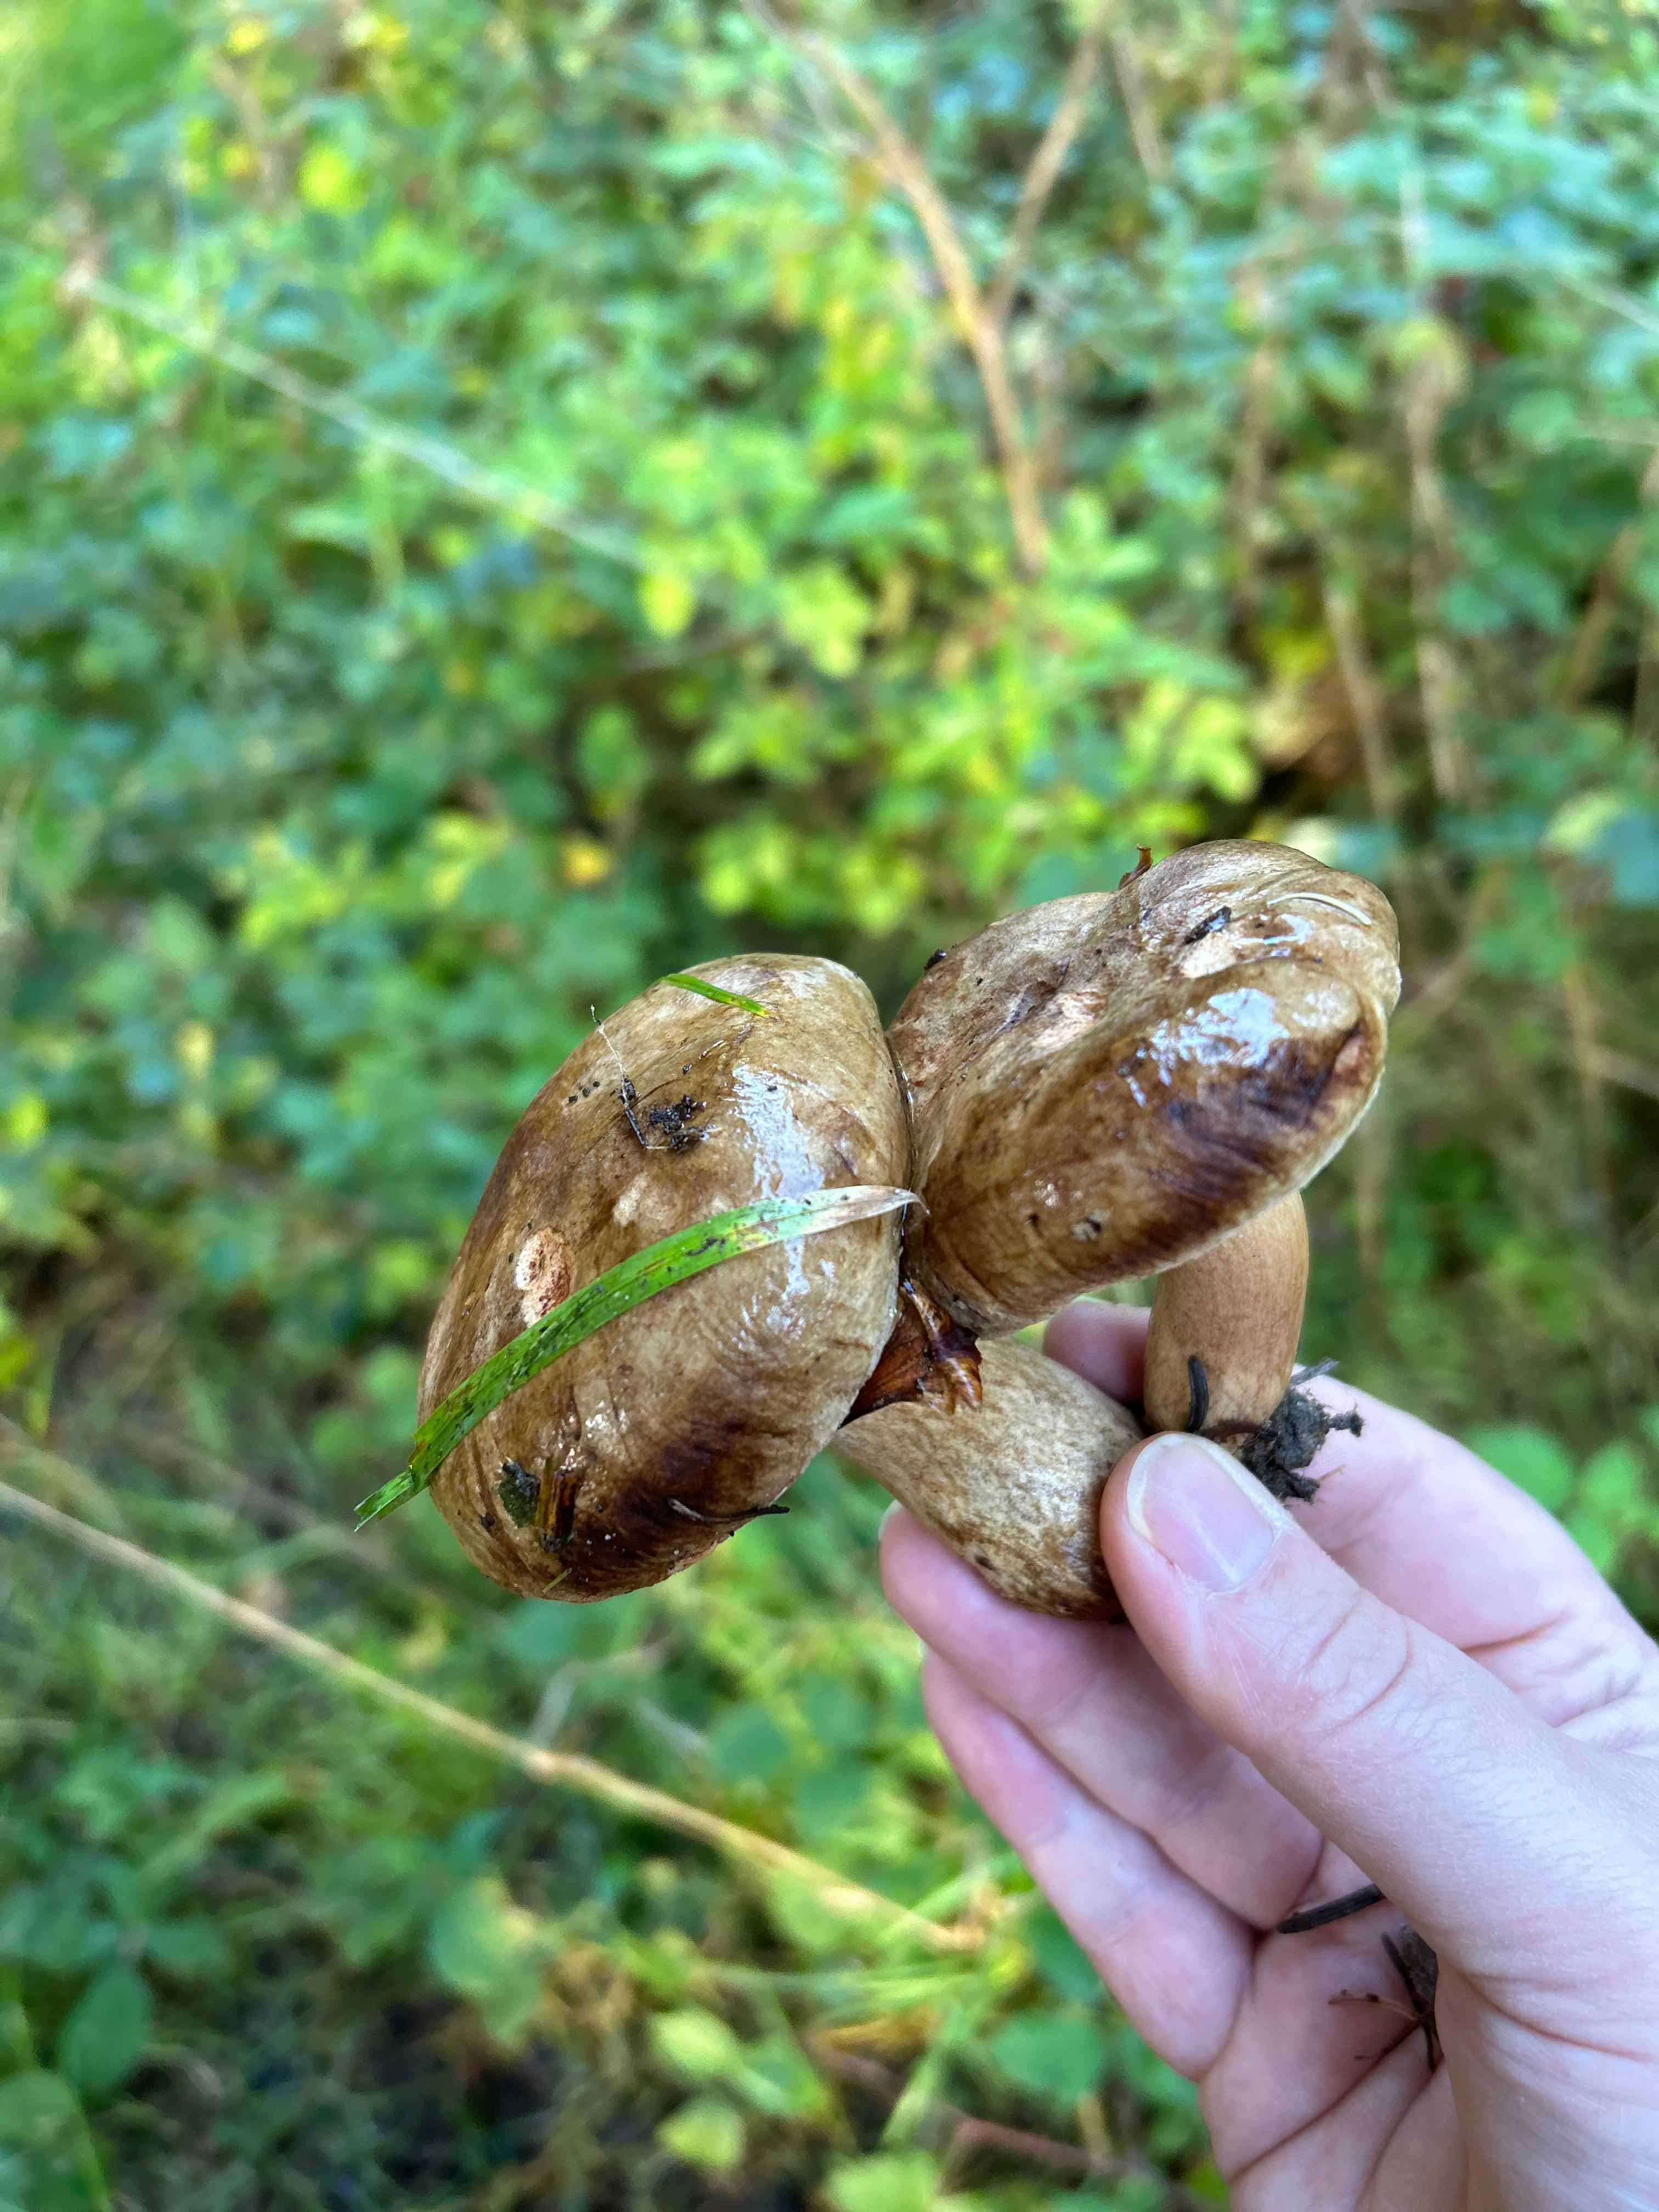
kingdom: Fungi
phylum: Basidiomycota
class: Agaricomycetes
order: Boletales
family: Paxillaceae
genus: Paxillus
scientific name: Paxillus
